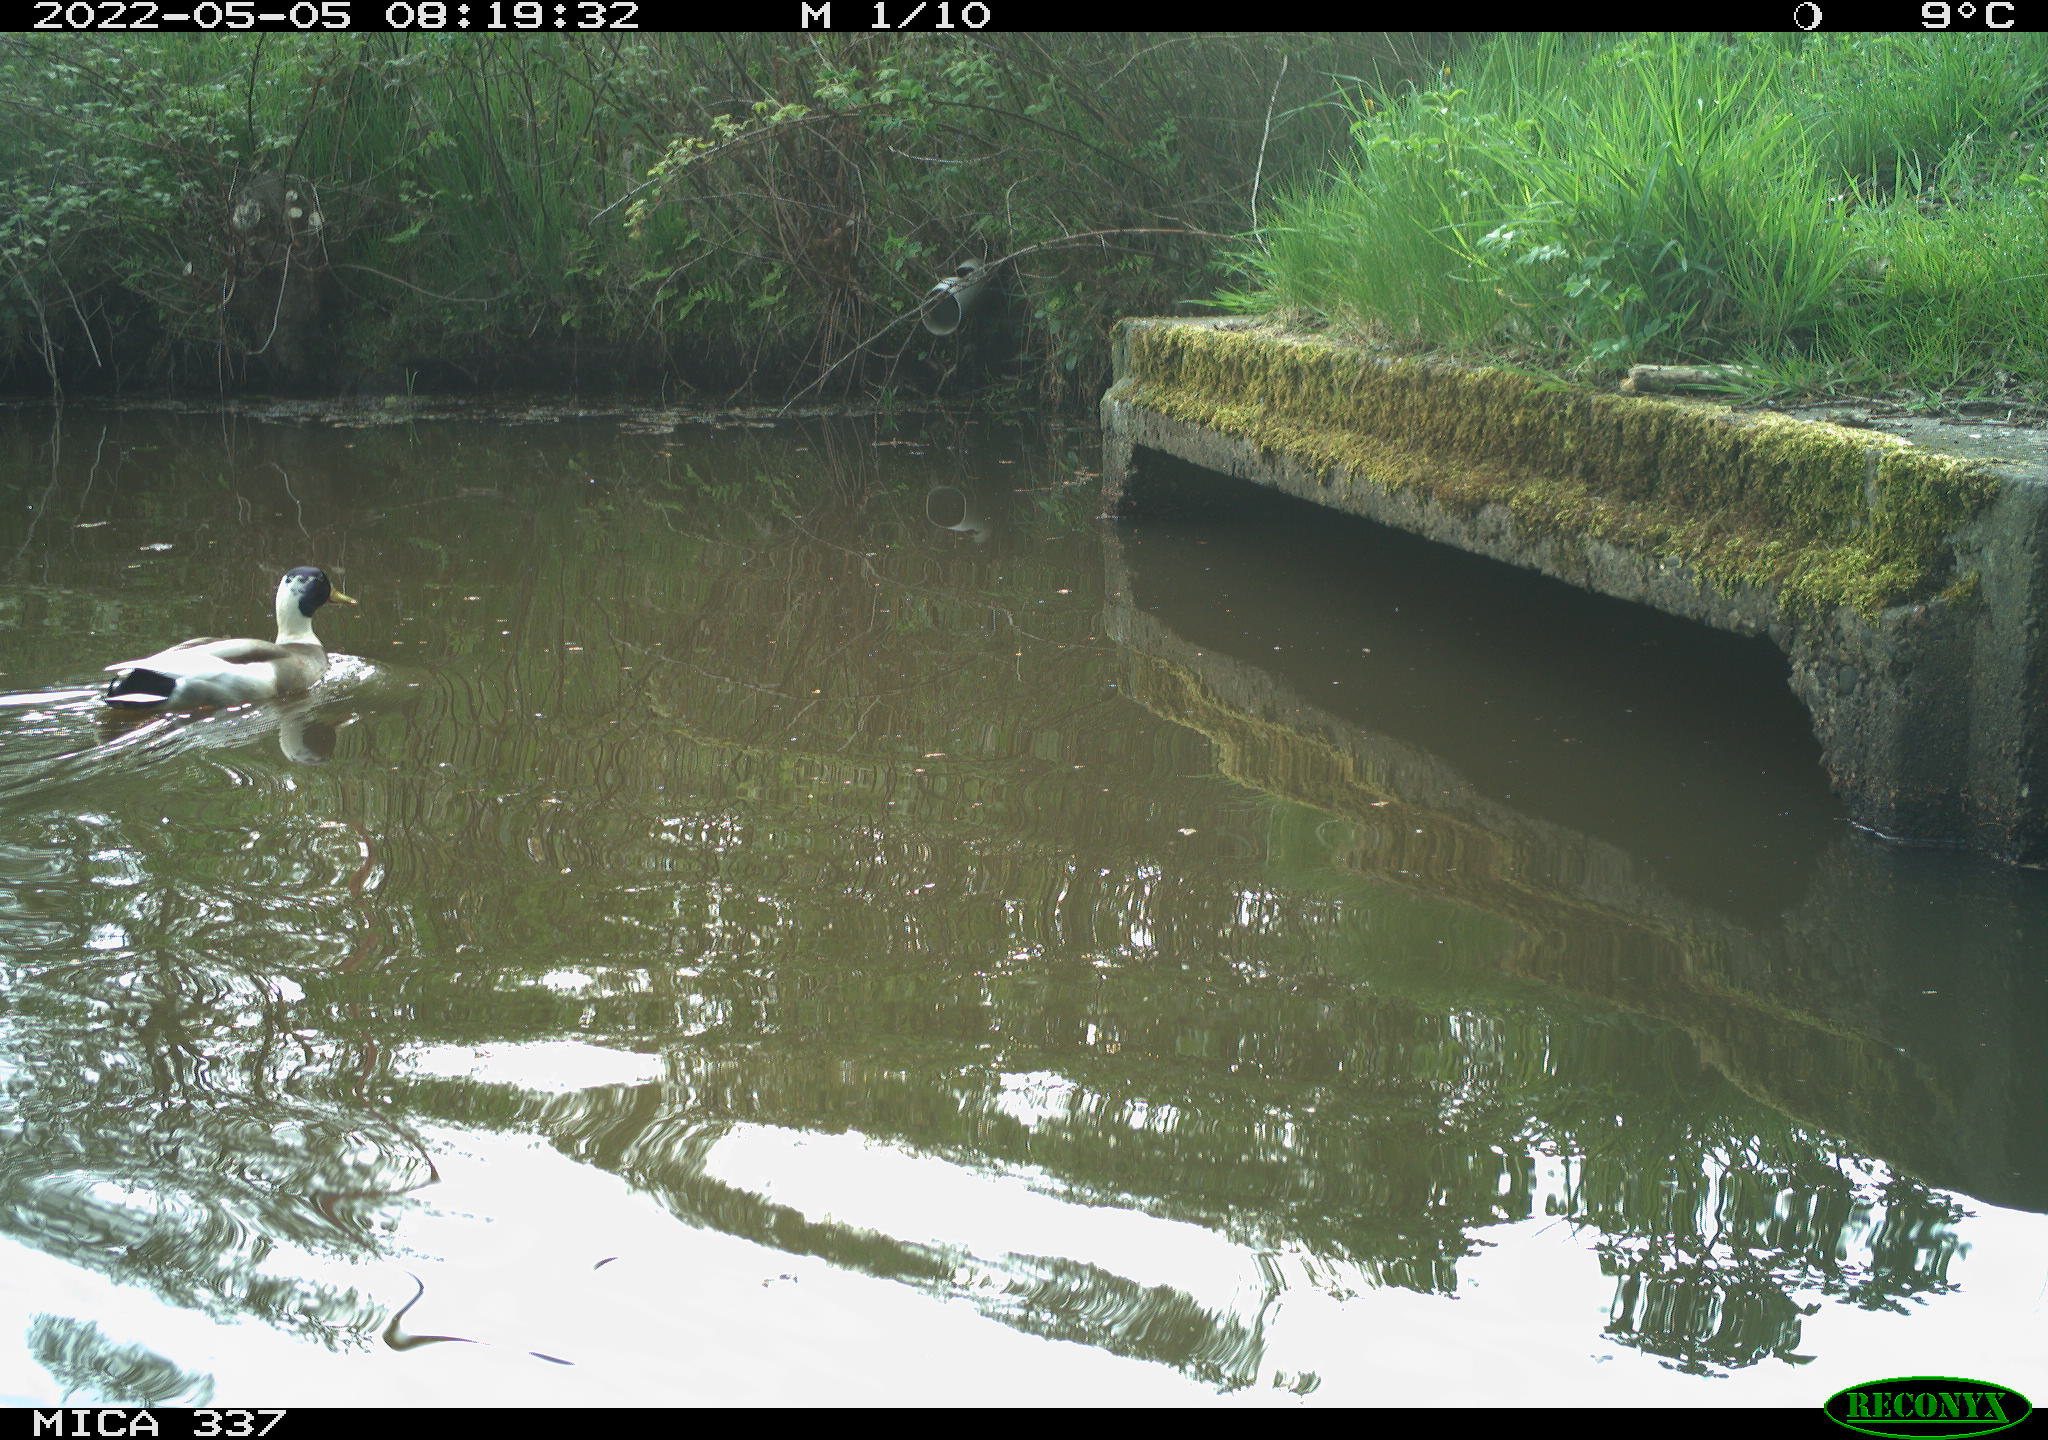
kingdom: Animalia
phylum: Chordata
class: Aves
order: Anseriformes
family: Anatidae
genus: Anas
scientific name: Anas platyrhynchos
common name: Mallard
